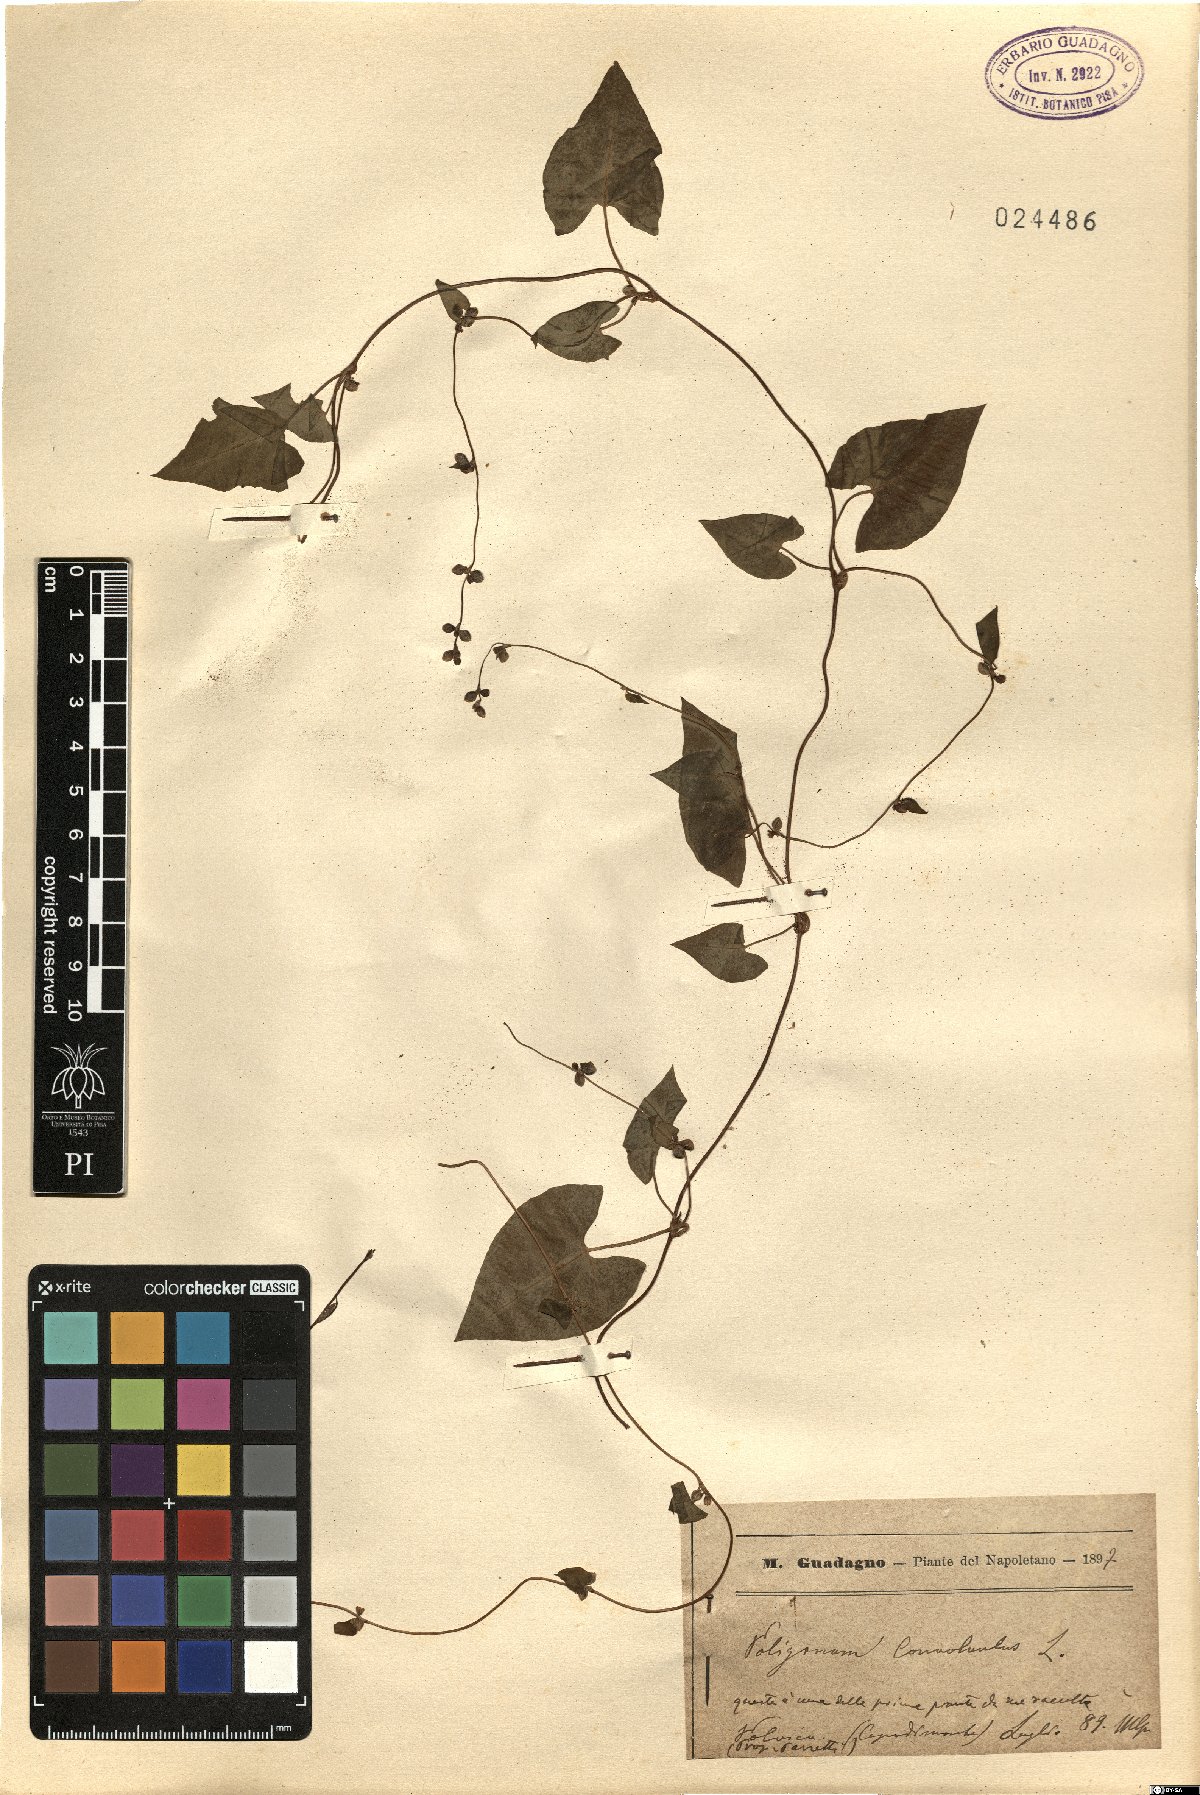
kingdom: Plantae
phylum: Tracheophyta
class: Magnoliopsida
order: Caryophyllales
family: Polygonaceae
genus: Fallopia
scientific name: Fallopia convolvulus
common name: Black bindweed
